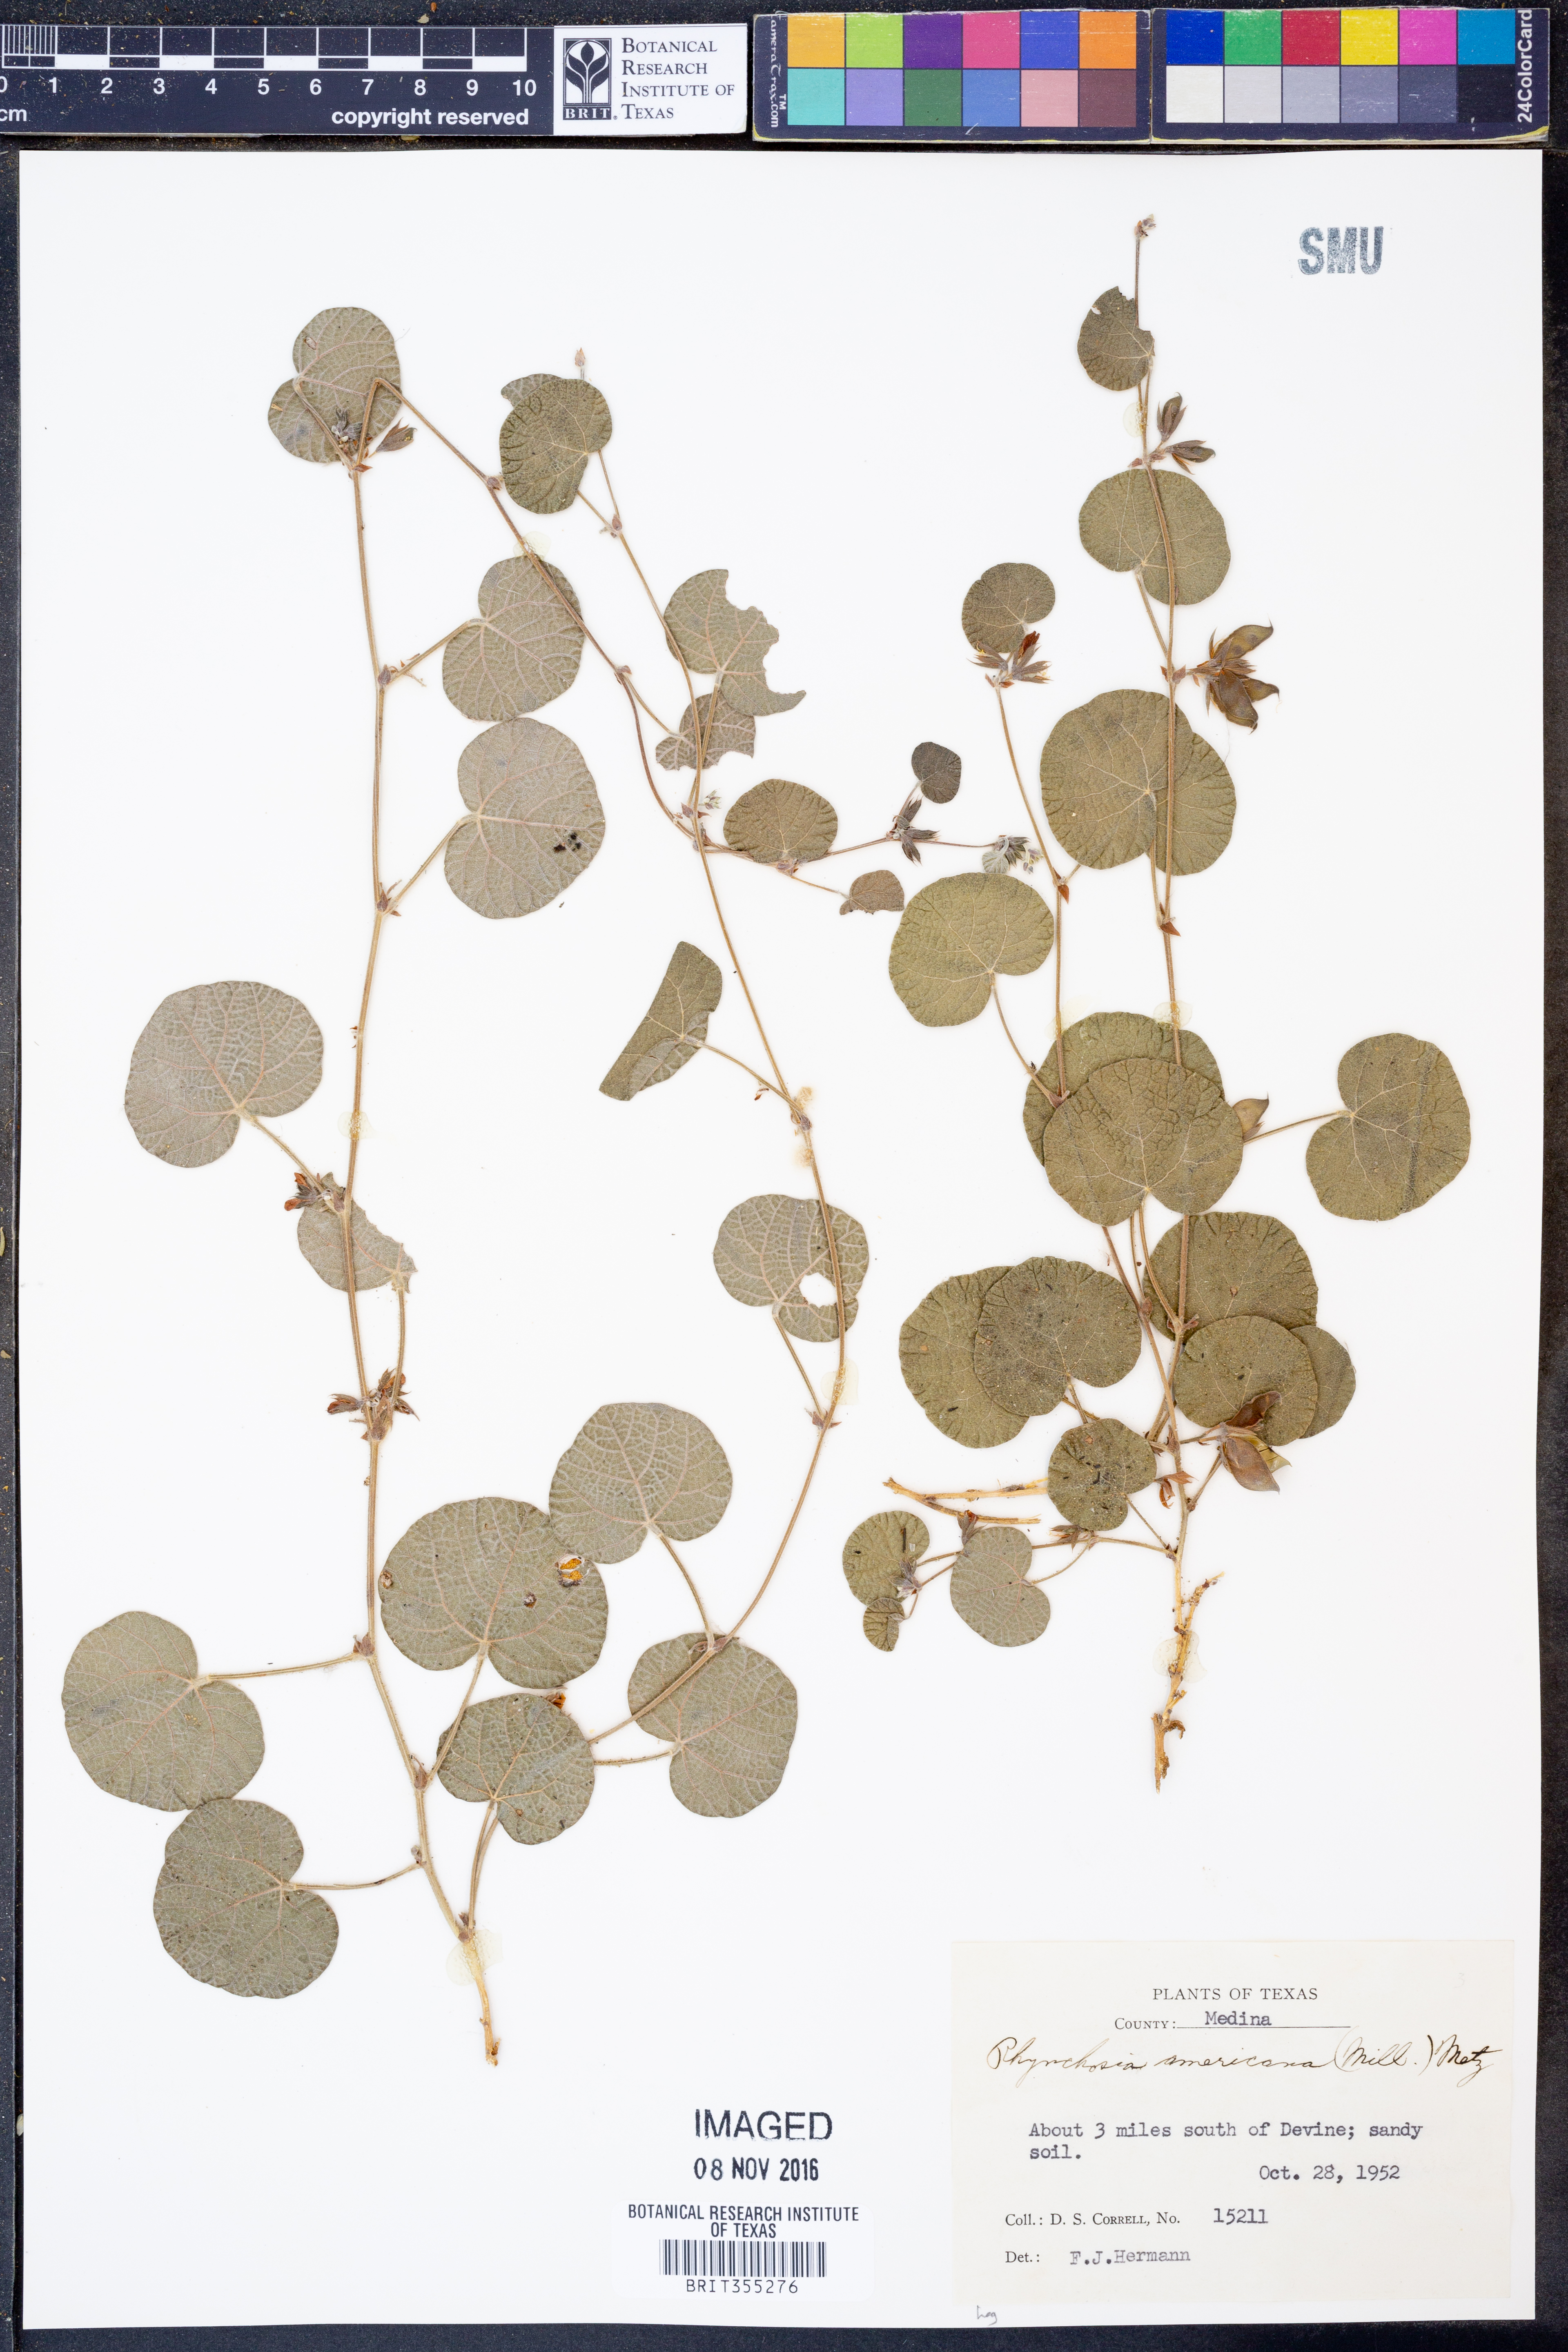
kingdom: Plantae
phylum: Tracheophyta
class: Magnoliopsida
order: Fabales
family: Fabaceae
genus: Rhynchosia
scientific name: Rhynchosia americana
